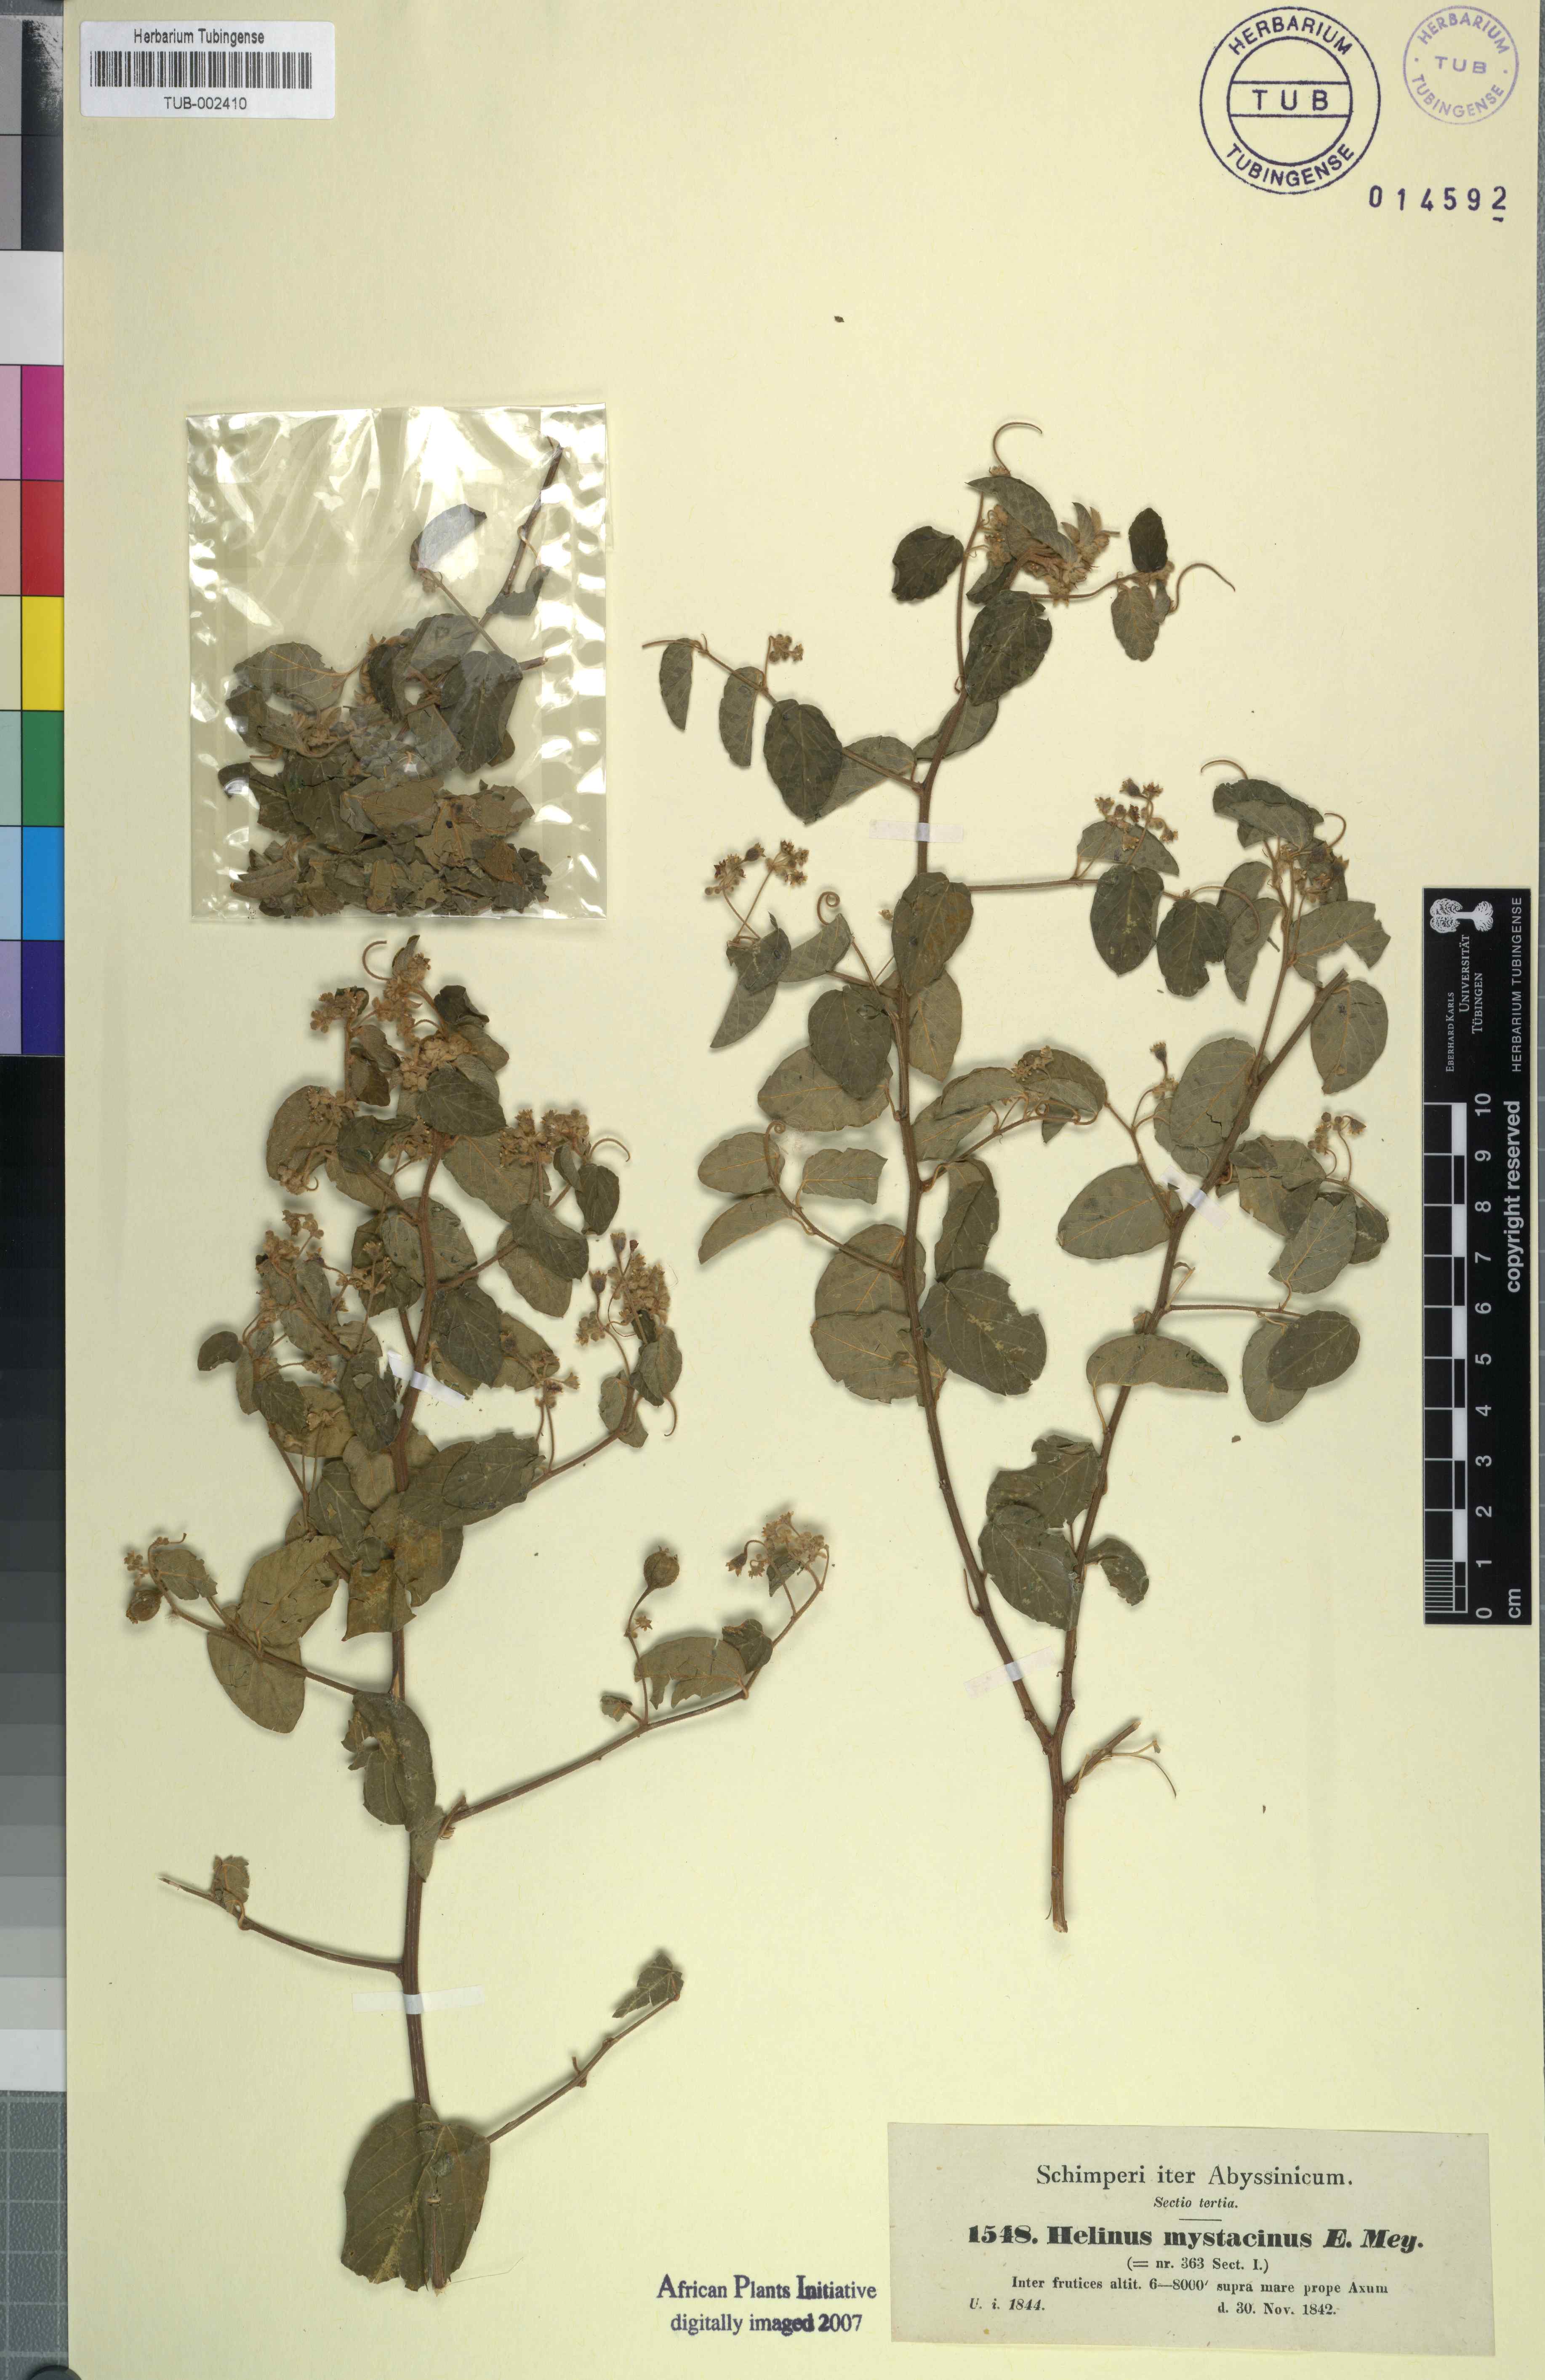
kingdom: Plantae
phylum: Tracheophyta
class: Magnoliopsida
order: Rosales
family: Rhamnaceae
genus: Helinus
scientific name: Helinus mystacinus
